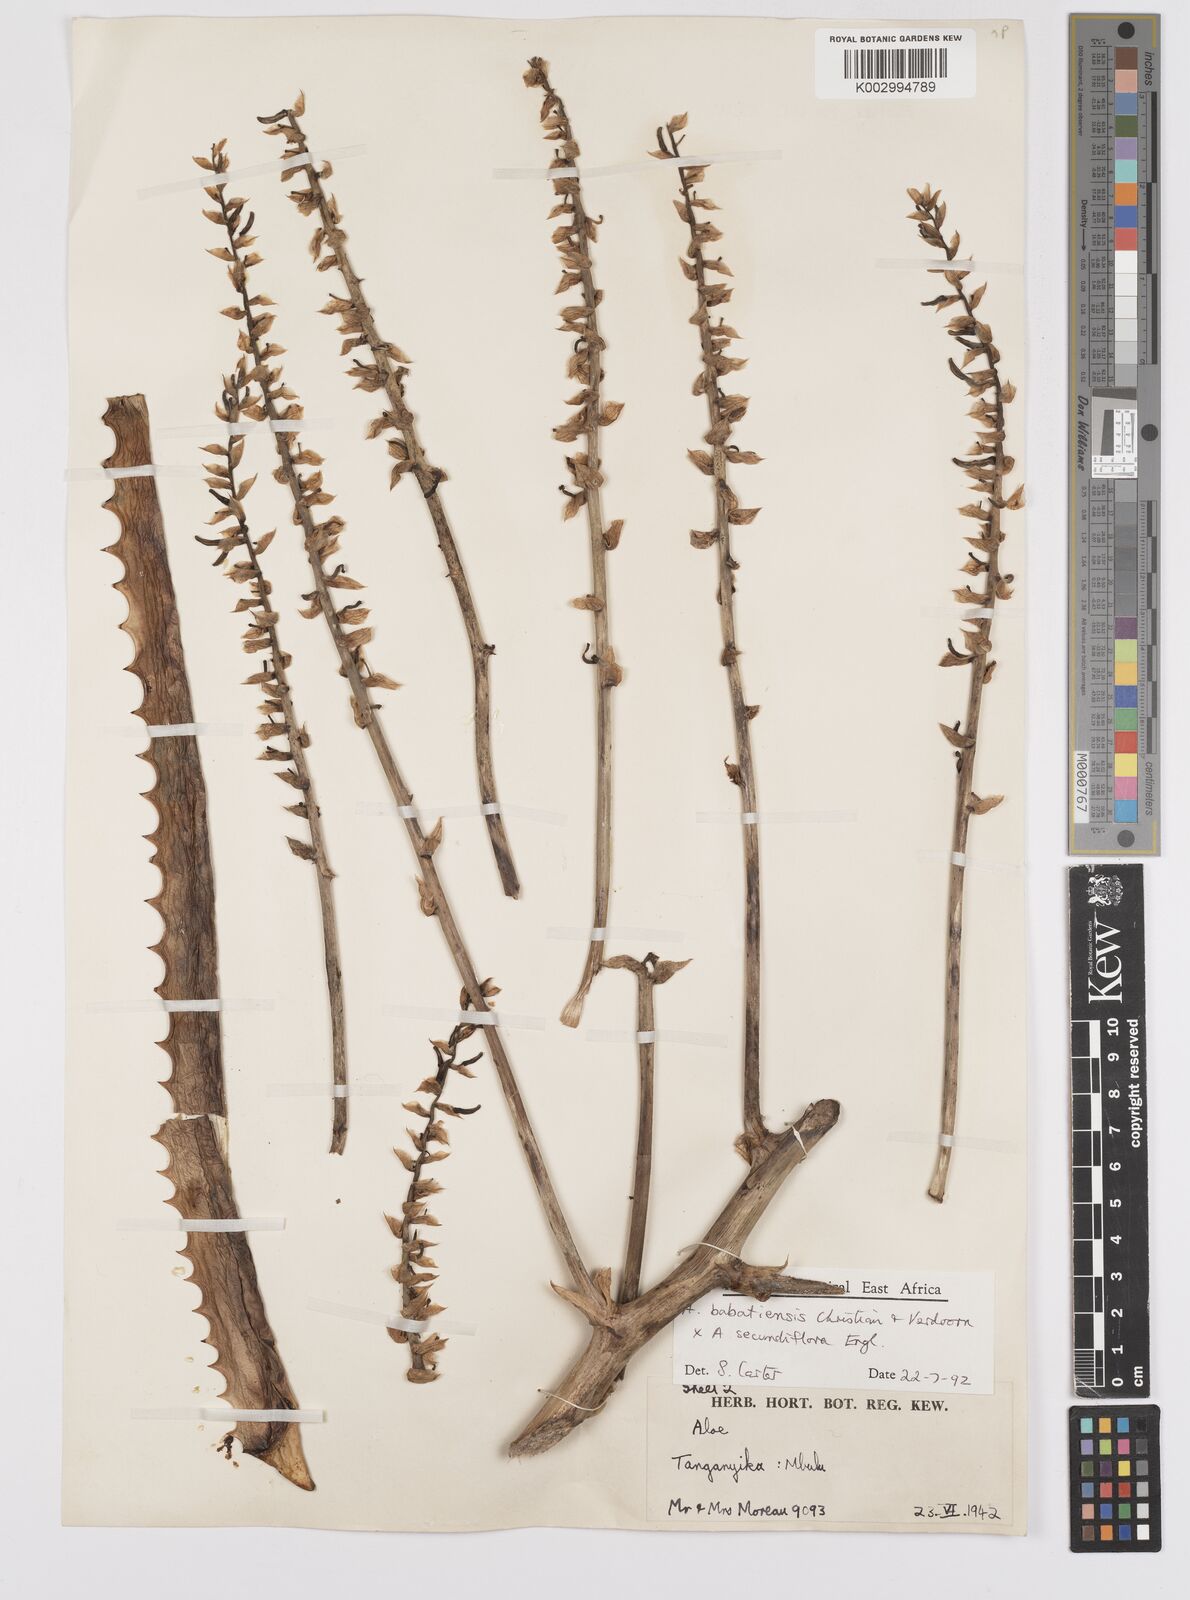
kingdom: Plantae
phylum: Tracheophyta
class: Liliopsida
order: Asparagales
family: Asphodelaceae
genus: Aloe
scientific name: Aloe babatiensis
